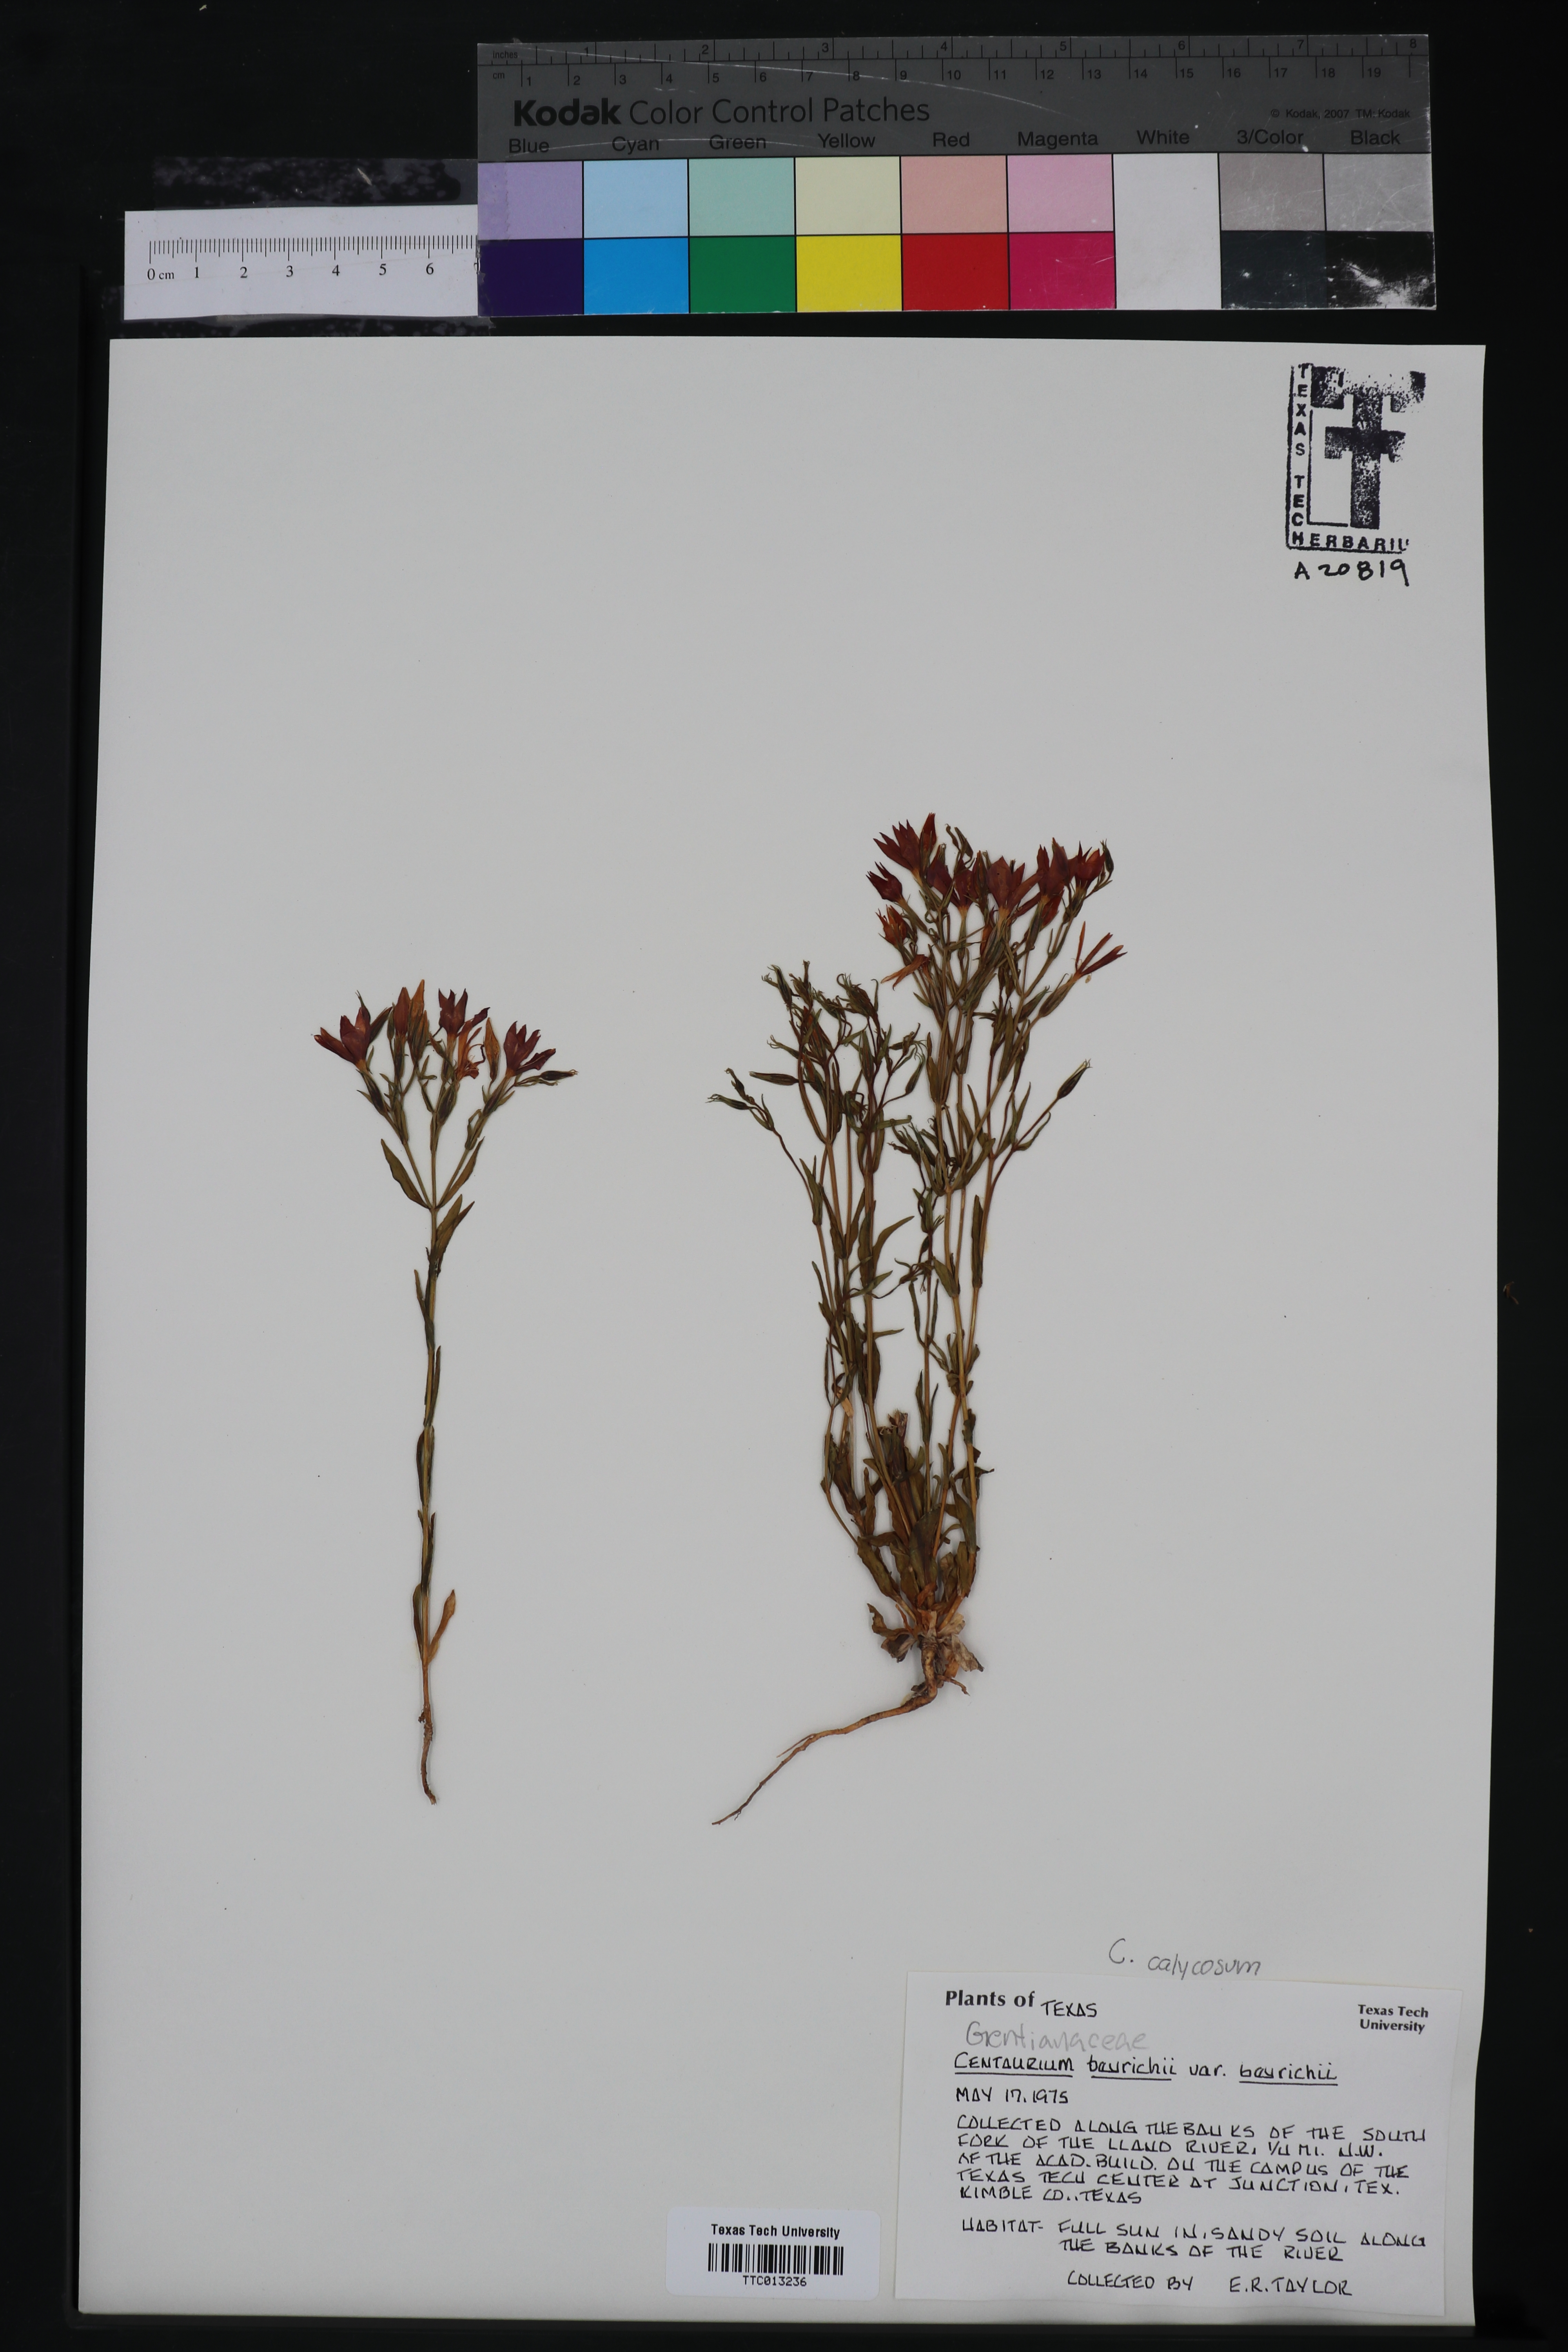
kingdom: Plantae
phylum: Tracheophyta
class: Magnoliopsida
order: Gentianales
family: Gentianaceae
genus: Zeltnera
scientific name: Zeltnera beyrichii
